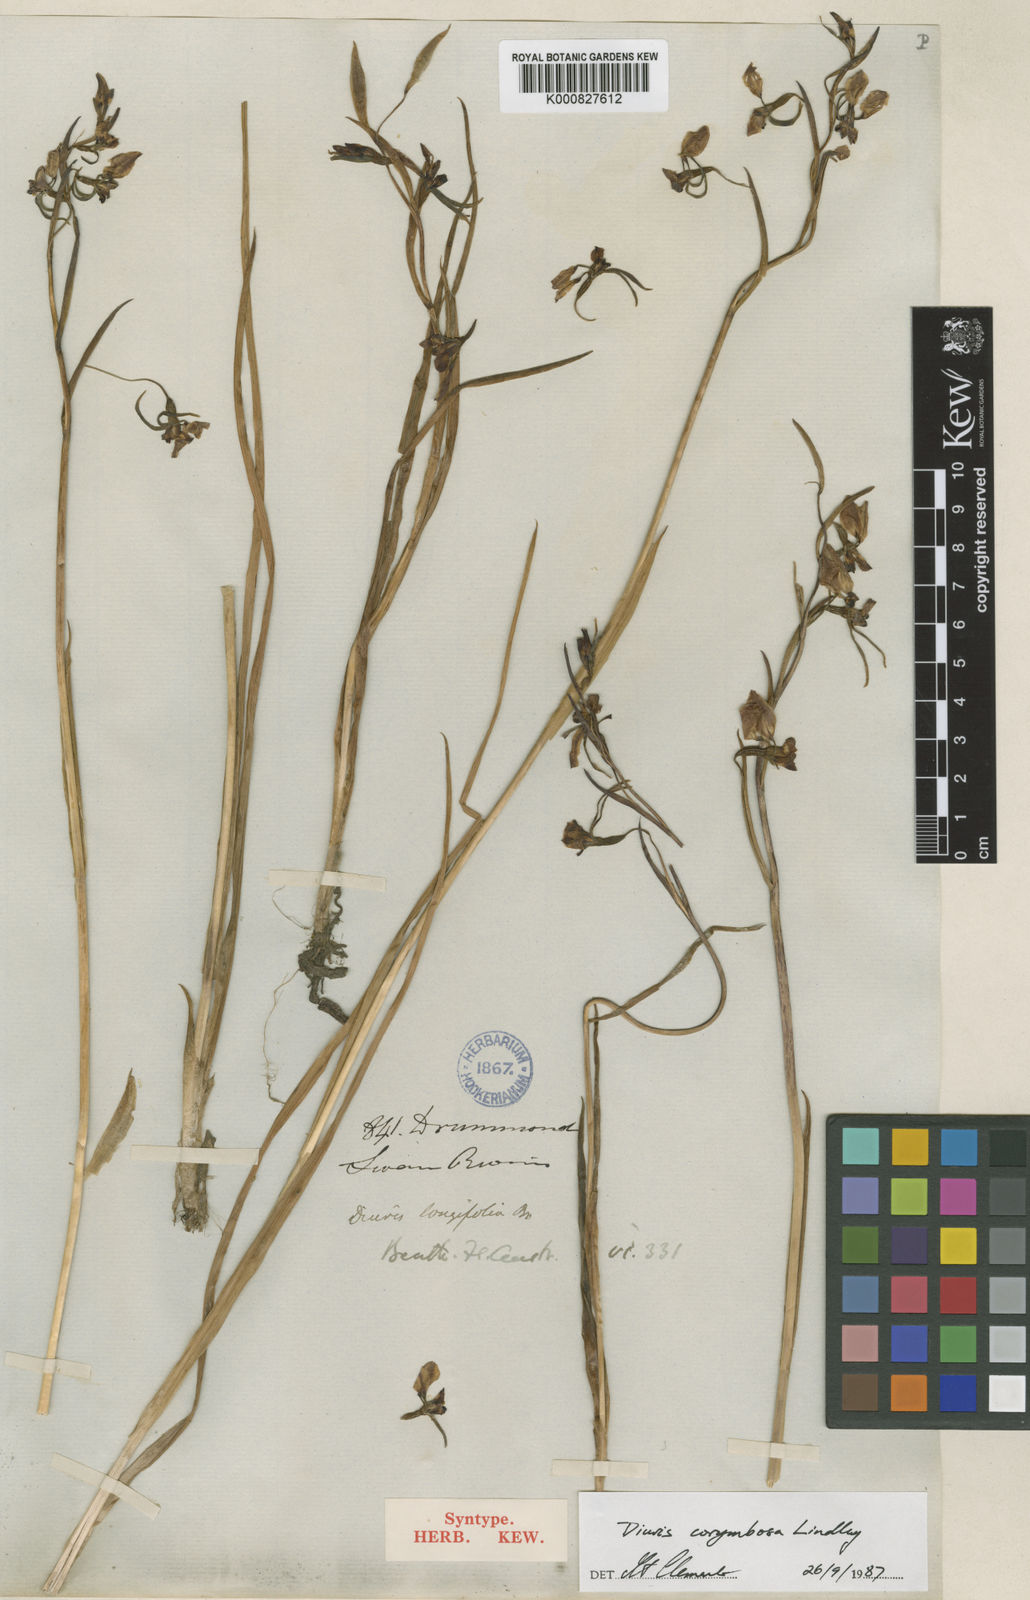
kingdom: Plantae
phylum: Tracheophyta
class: Liliopsida
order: Asparagales
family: Orchidaceae
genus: Diuris
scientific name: Diuris longifolia
